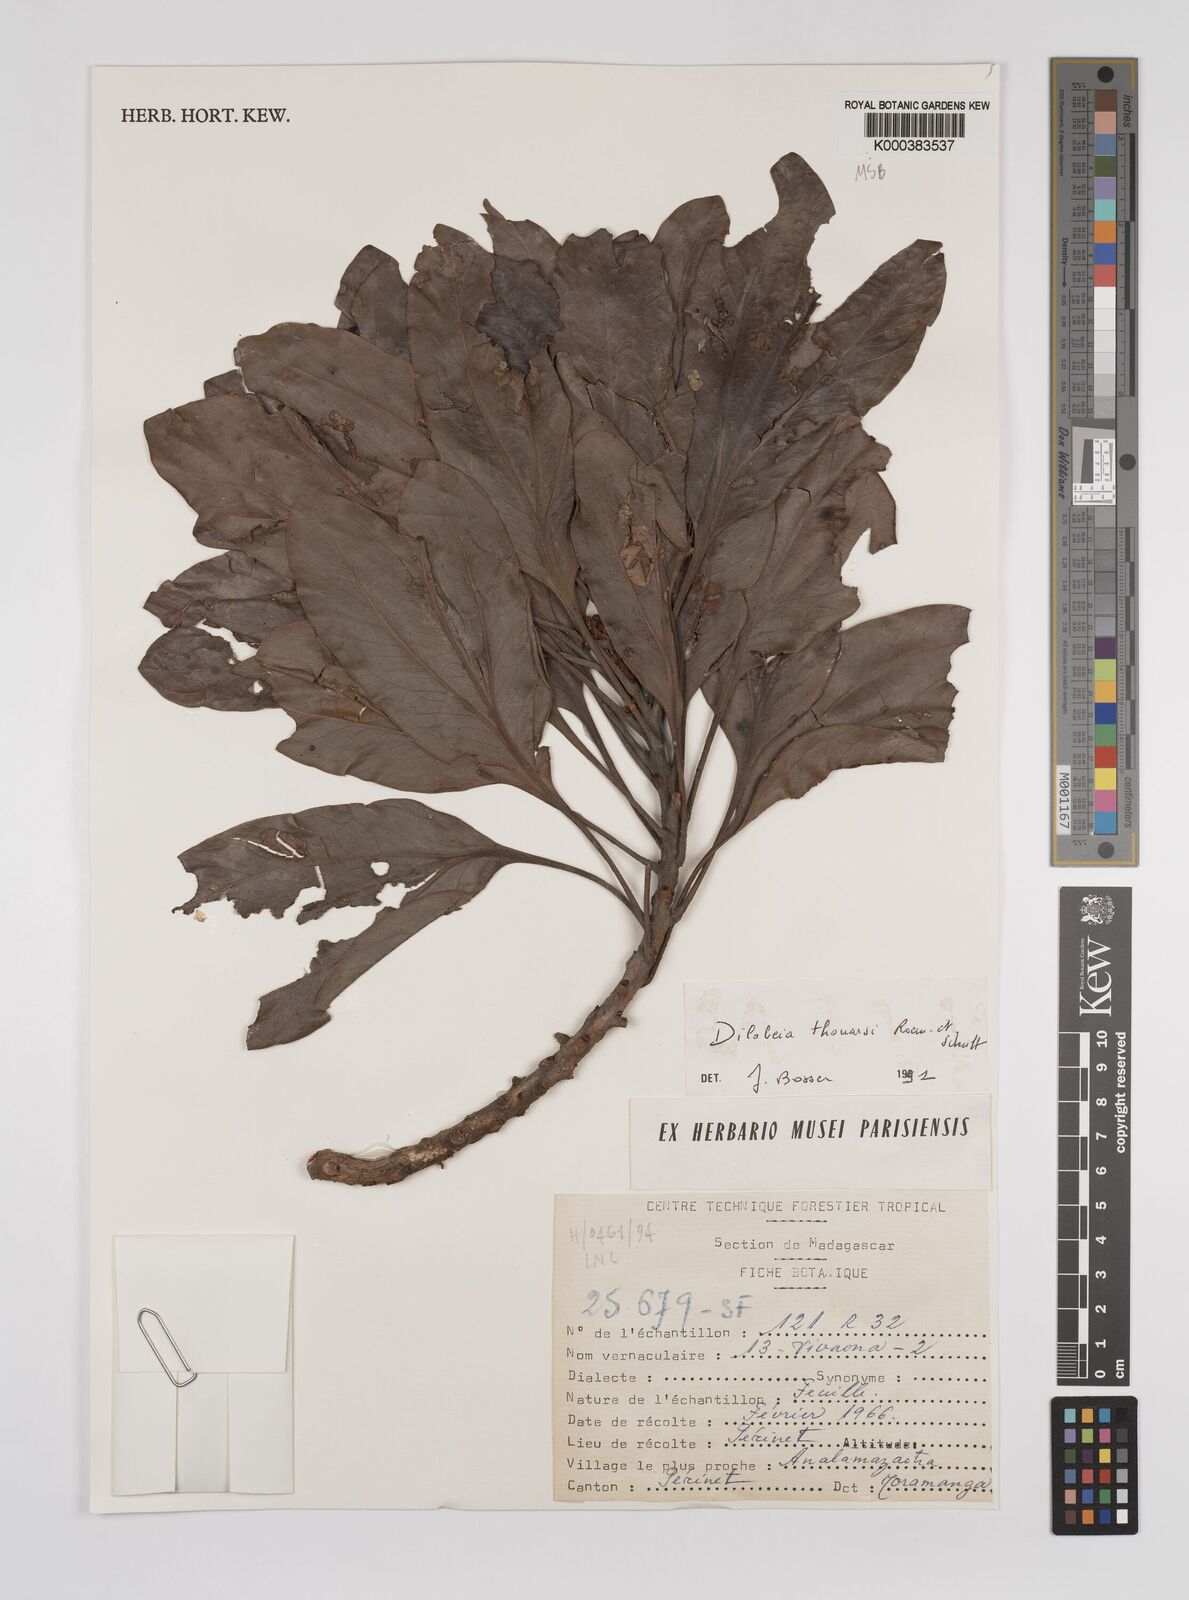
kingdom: Plantae
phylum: Tracheophyta
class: Magnoliopsida
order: Proteales
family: Proteaceae
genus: Dilobeia
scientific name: Dilobeia thouarsii
